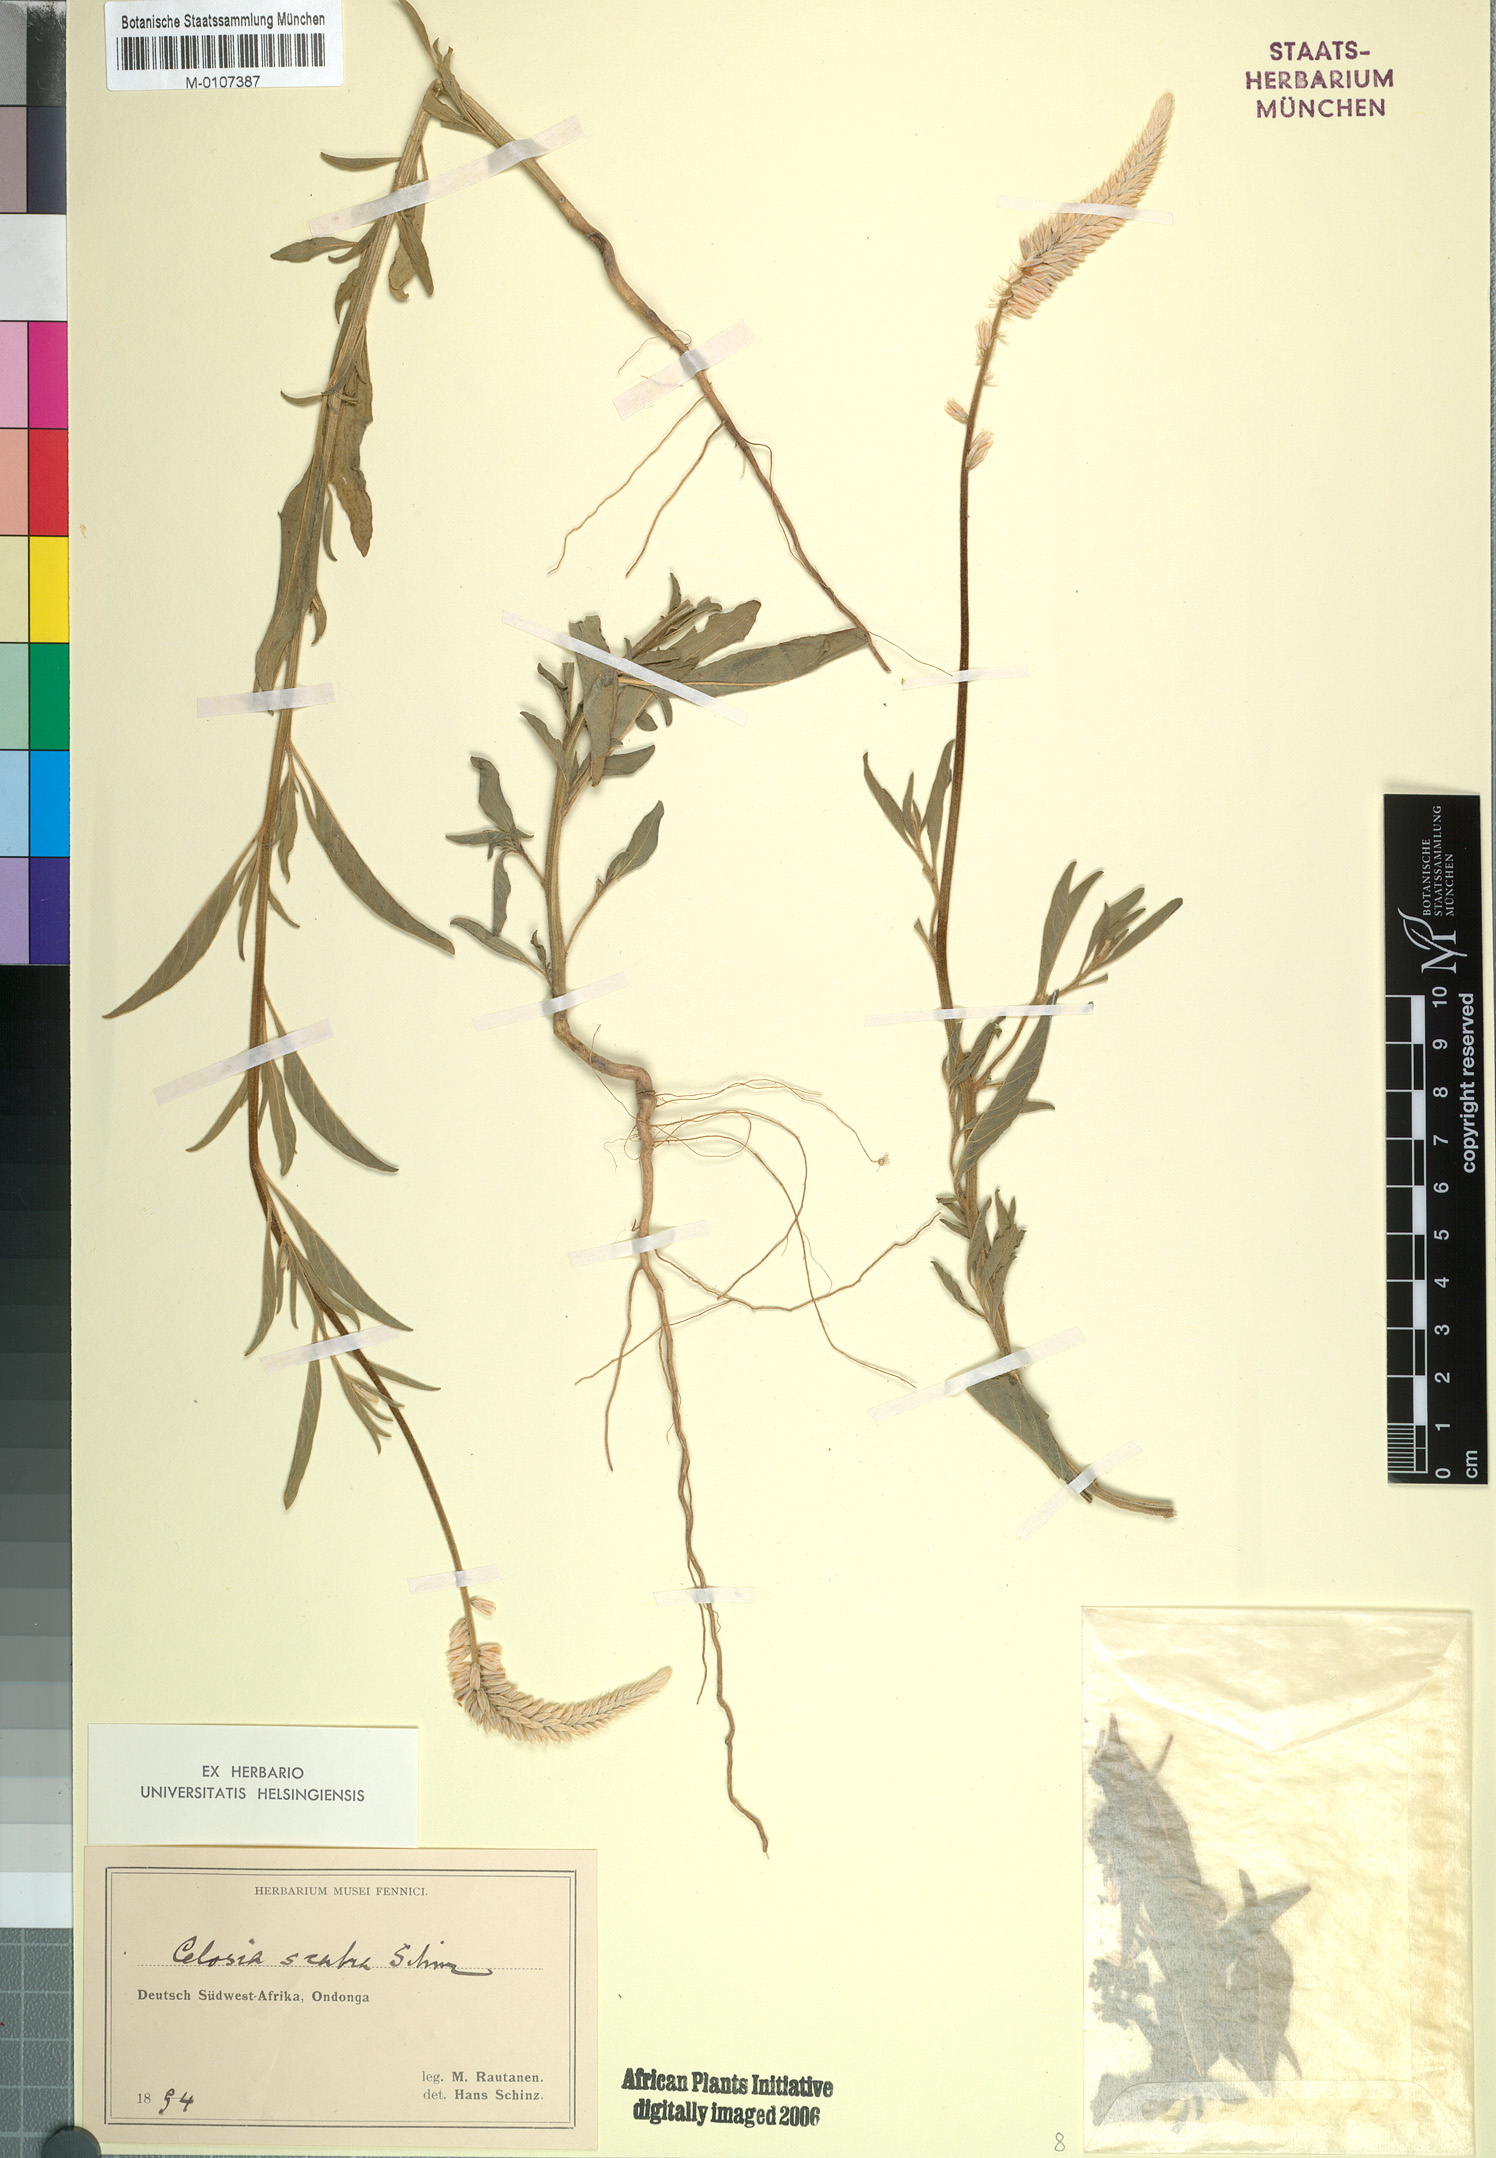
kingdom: Plantae
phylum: Tracheophyta
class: Magnoliopsida
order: Caryophyllales
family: Amaranthaceae
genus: Hermbstaedtia
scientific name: Hermbstaedtia scabra
